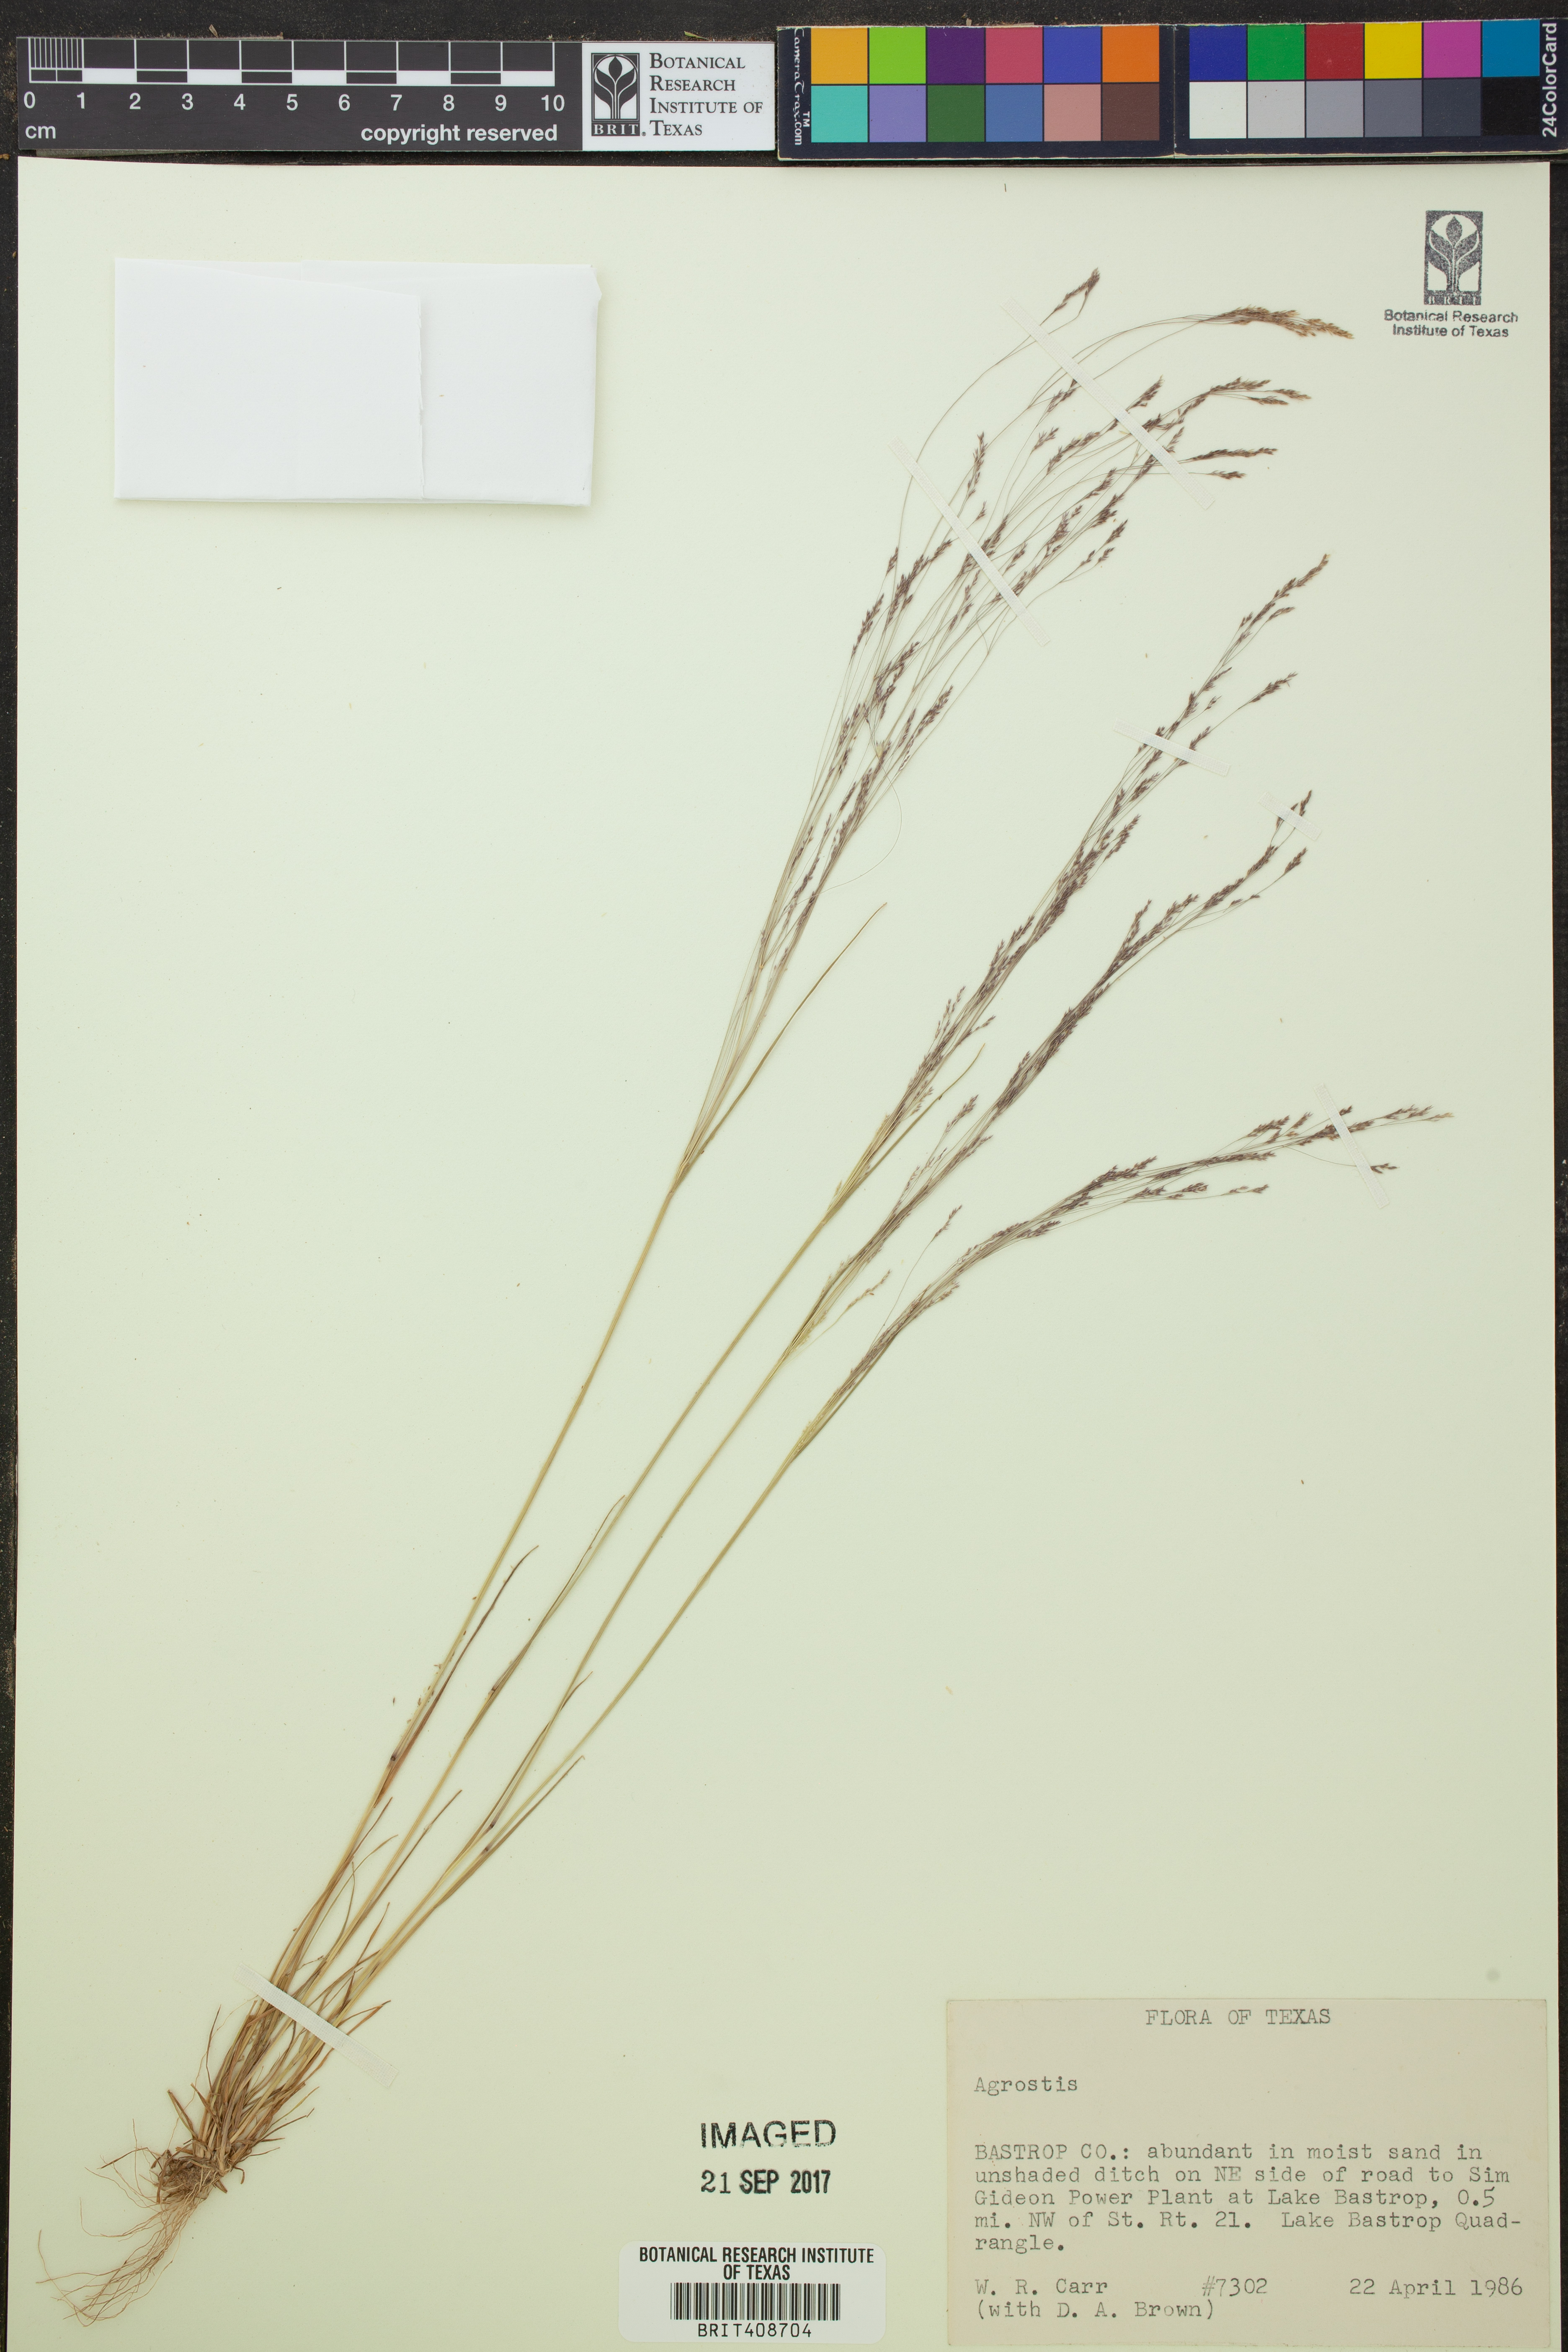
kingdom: Plantae
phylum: Tracheophyta
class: Liliopsida
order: Poales
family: Poaceae
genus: Agrostis
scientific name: Agrostis hyemalis
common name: Small bent
